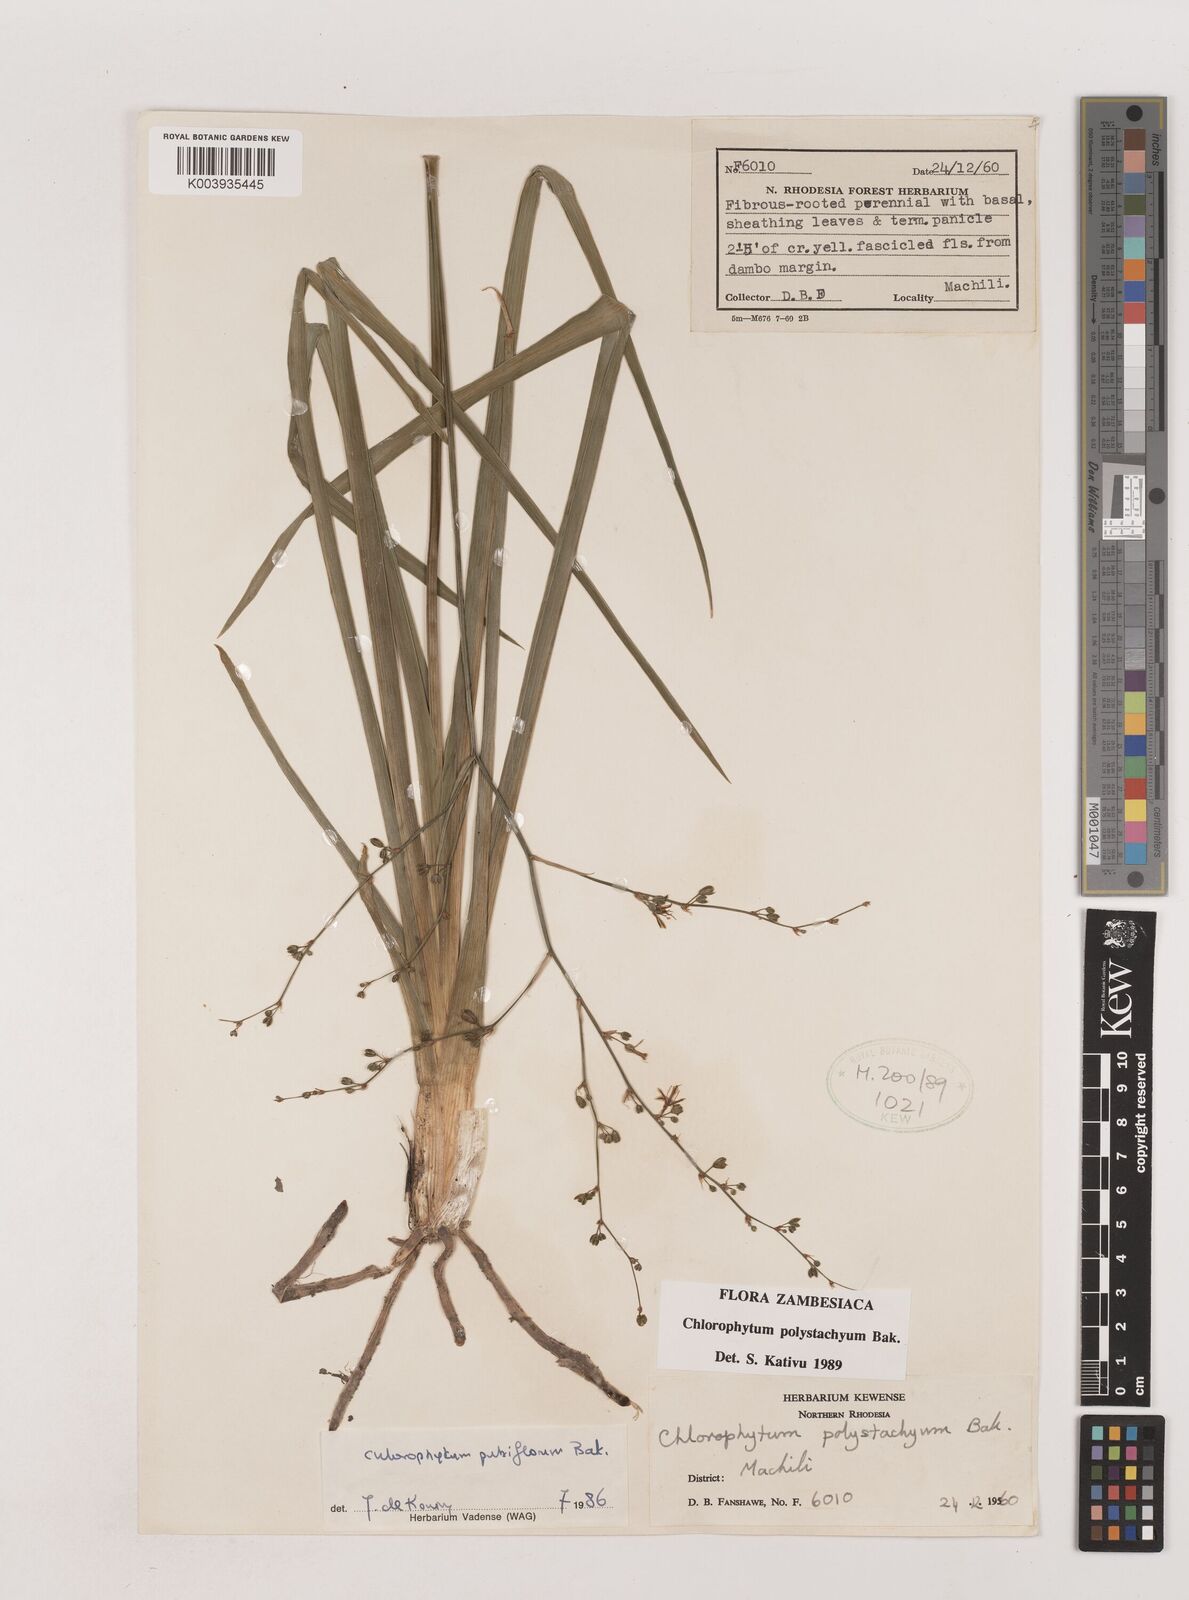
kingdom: Plantae
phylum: Tracheophyta
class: Liliopsida
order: Asparagales
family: Asparagaceae
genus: Chlorophytum
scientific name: Chlorophytum polystachys
